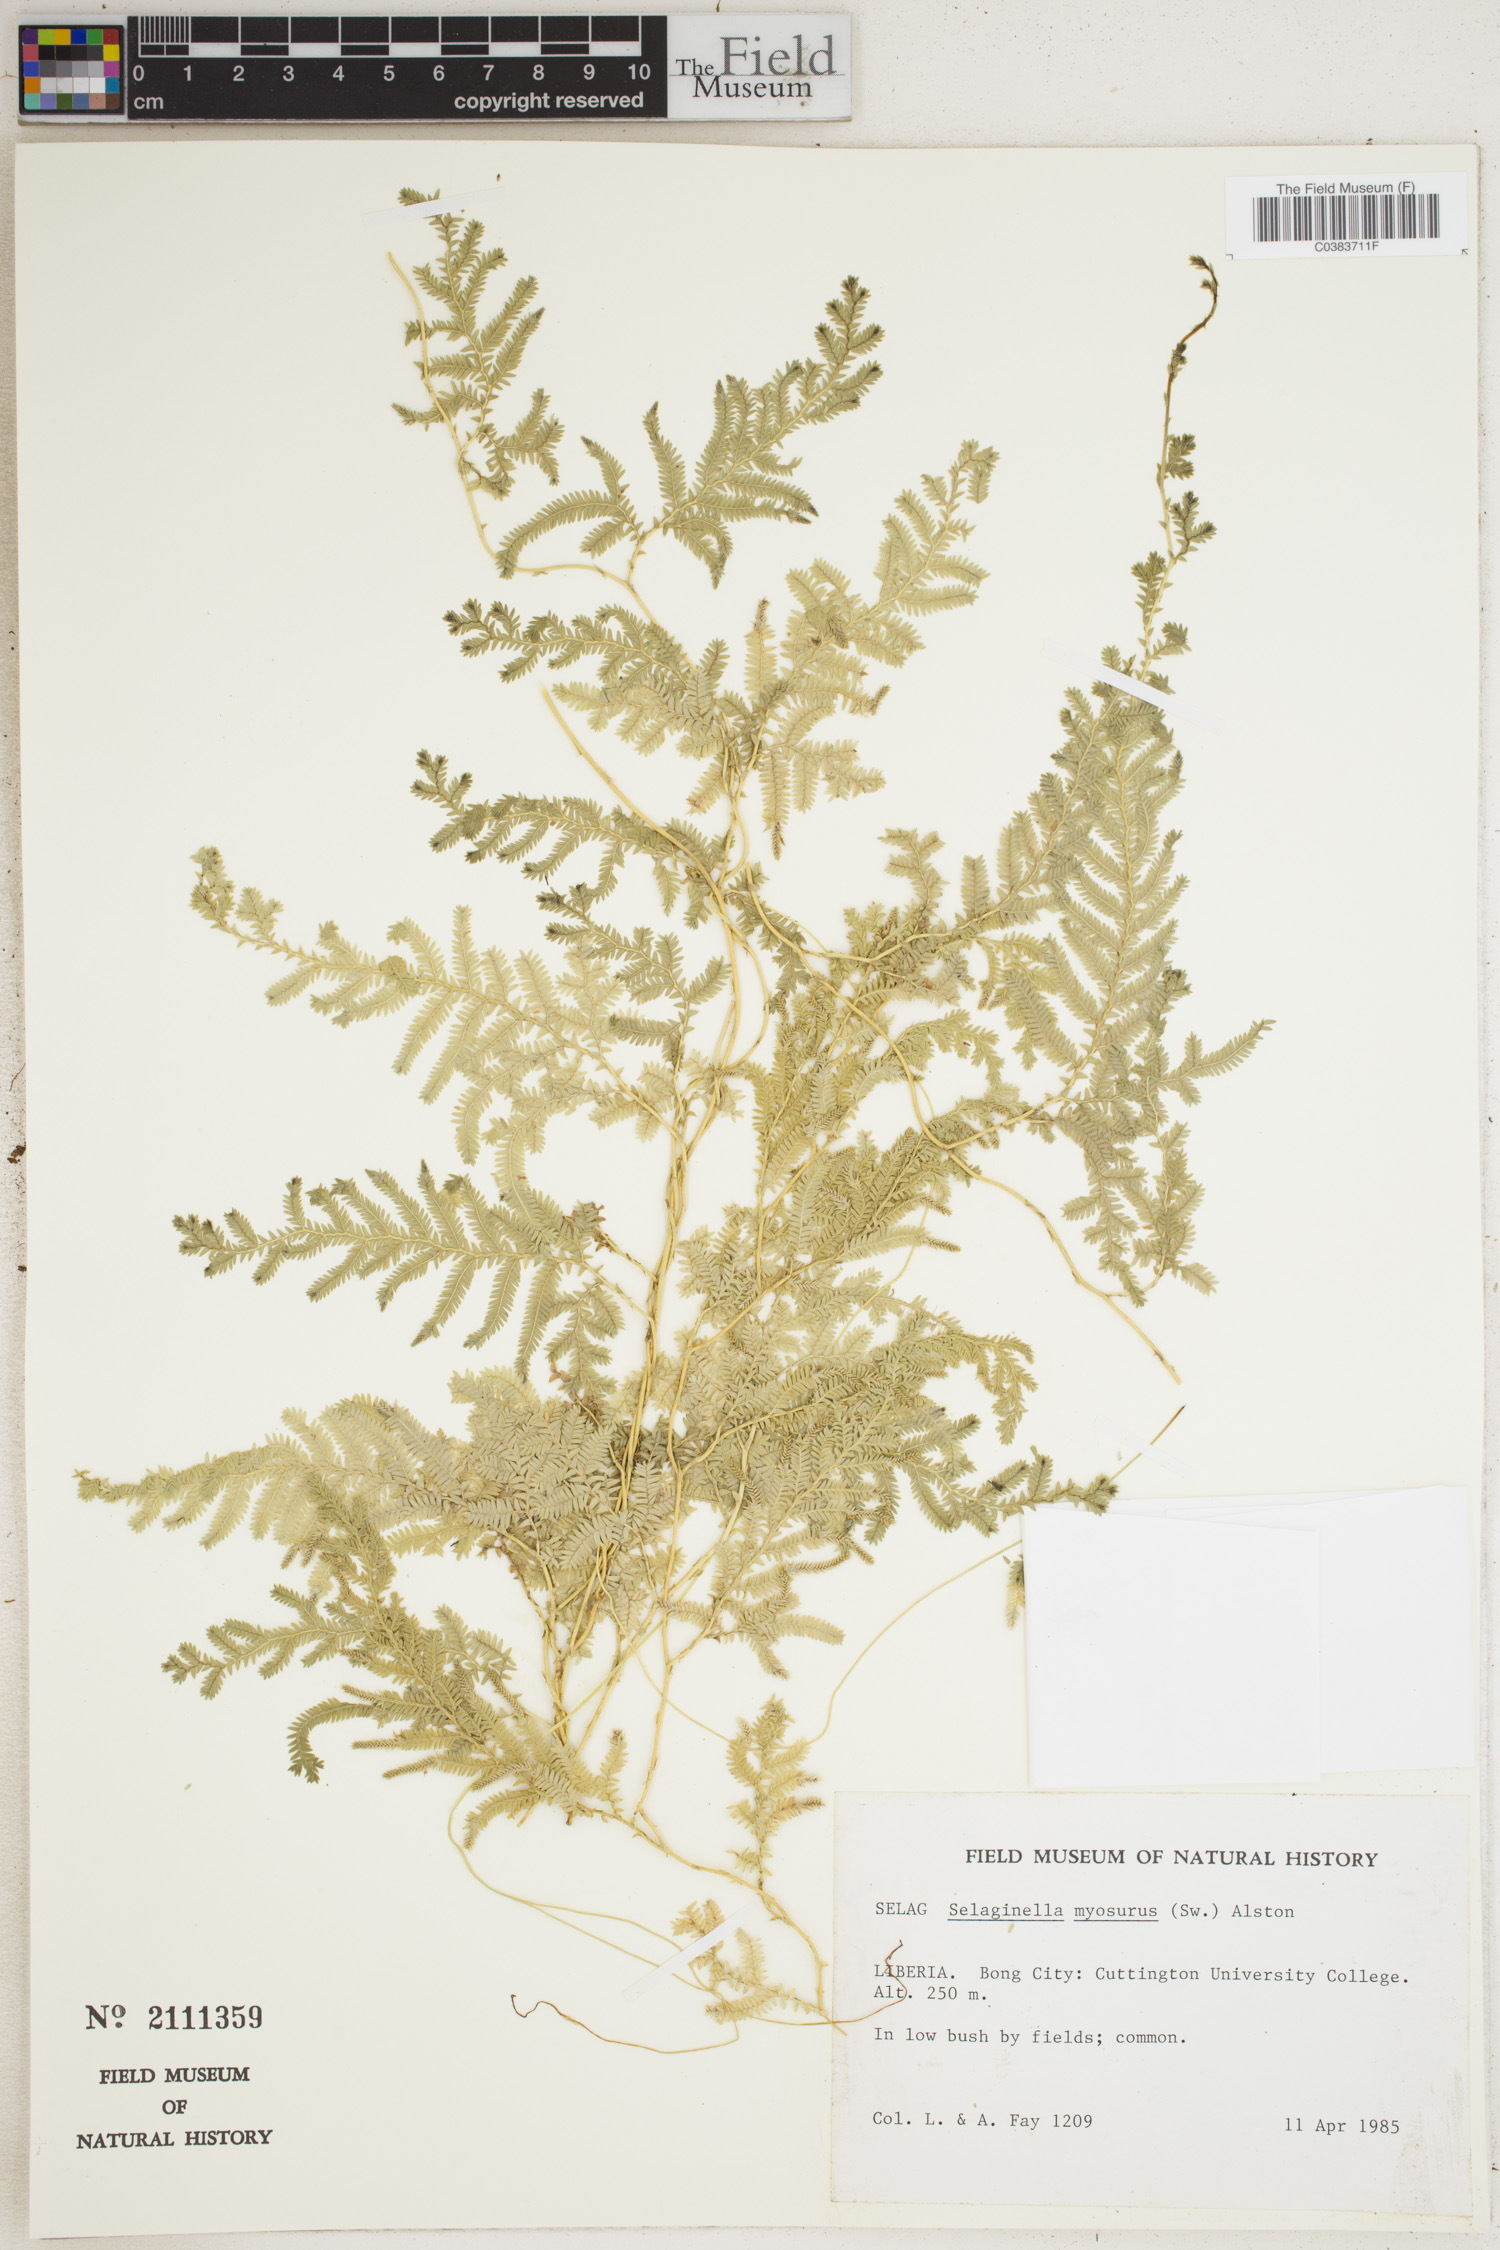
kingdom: Plantae
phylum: Tracheophyta
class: Lycopodiopsida
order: Selaginellales
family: Selaginellaceae
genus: Selaginella
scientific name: Selaginella myosurus
